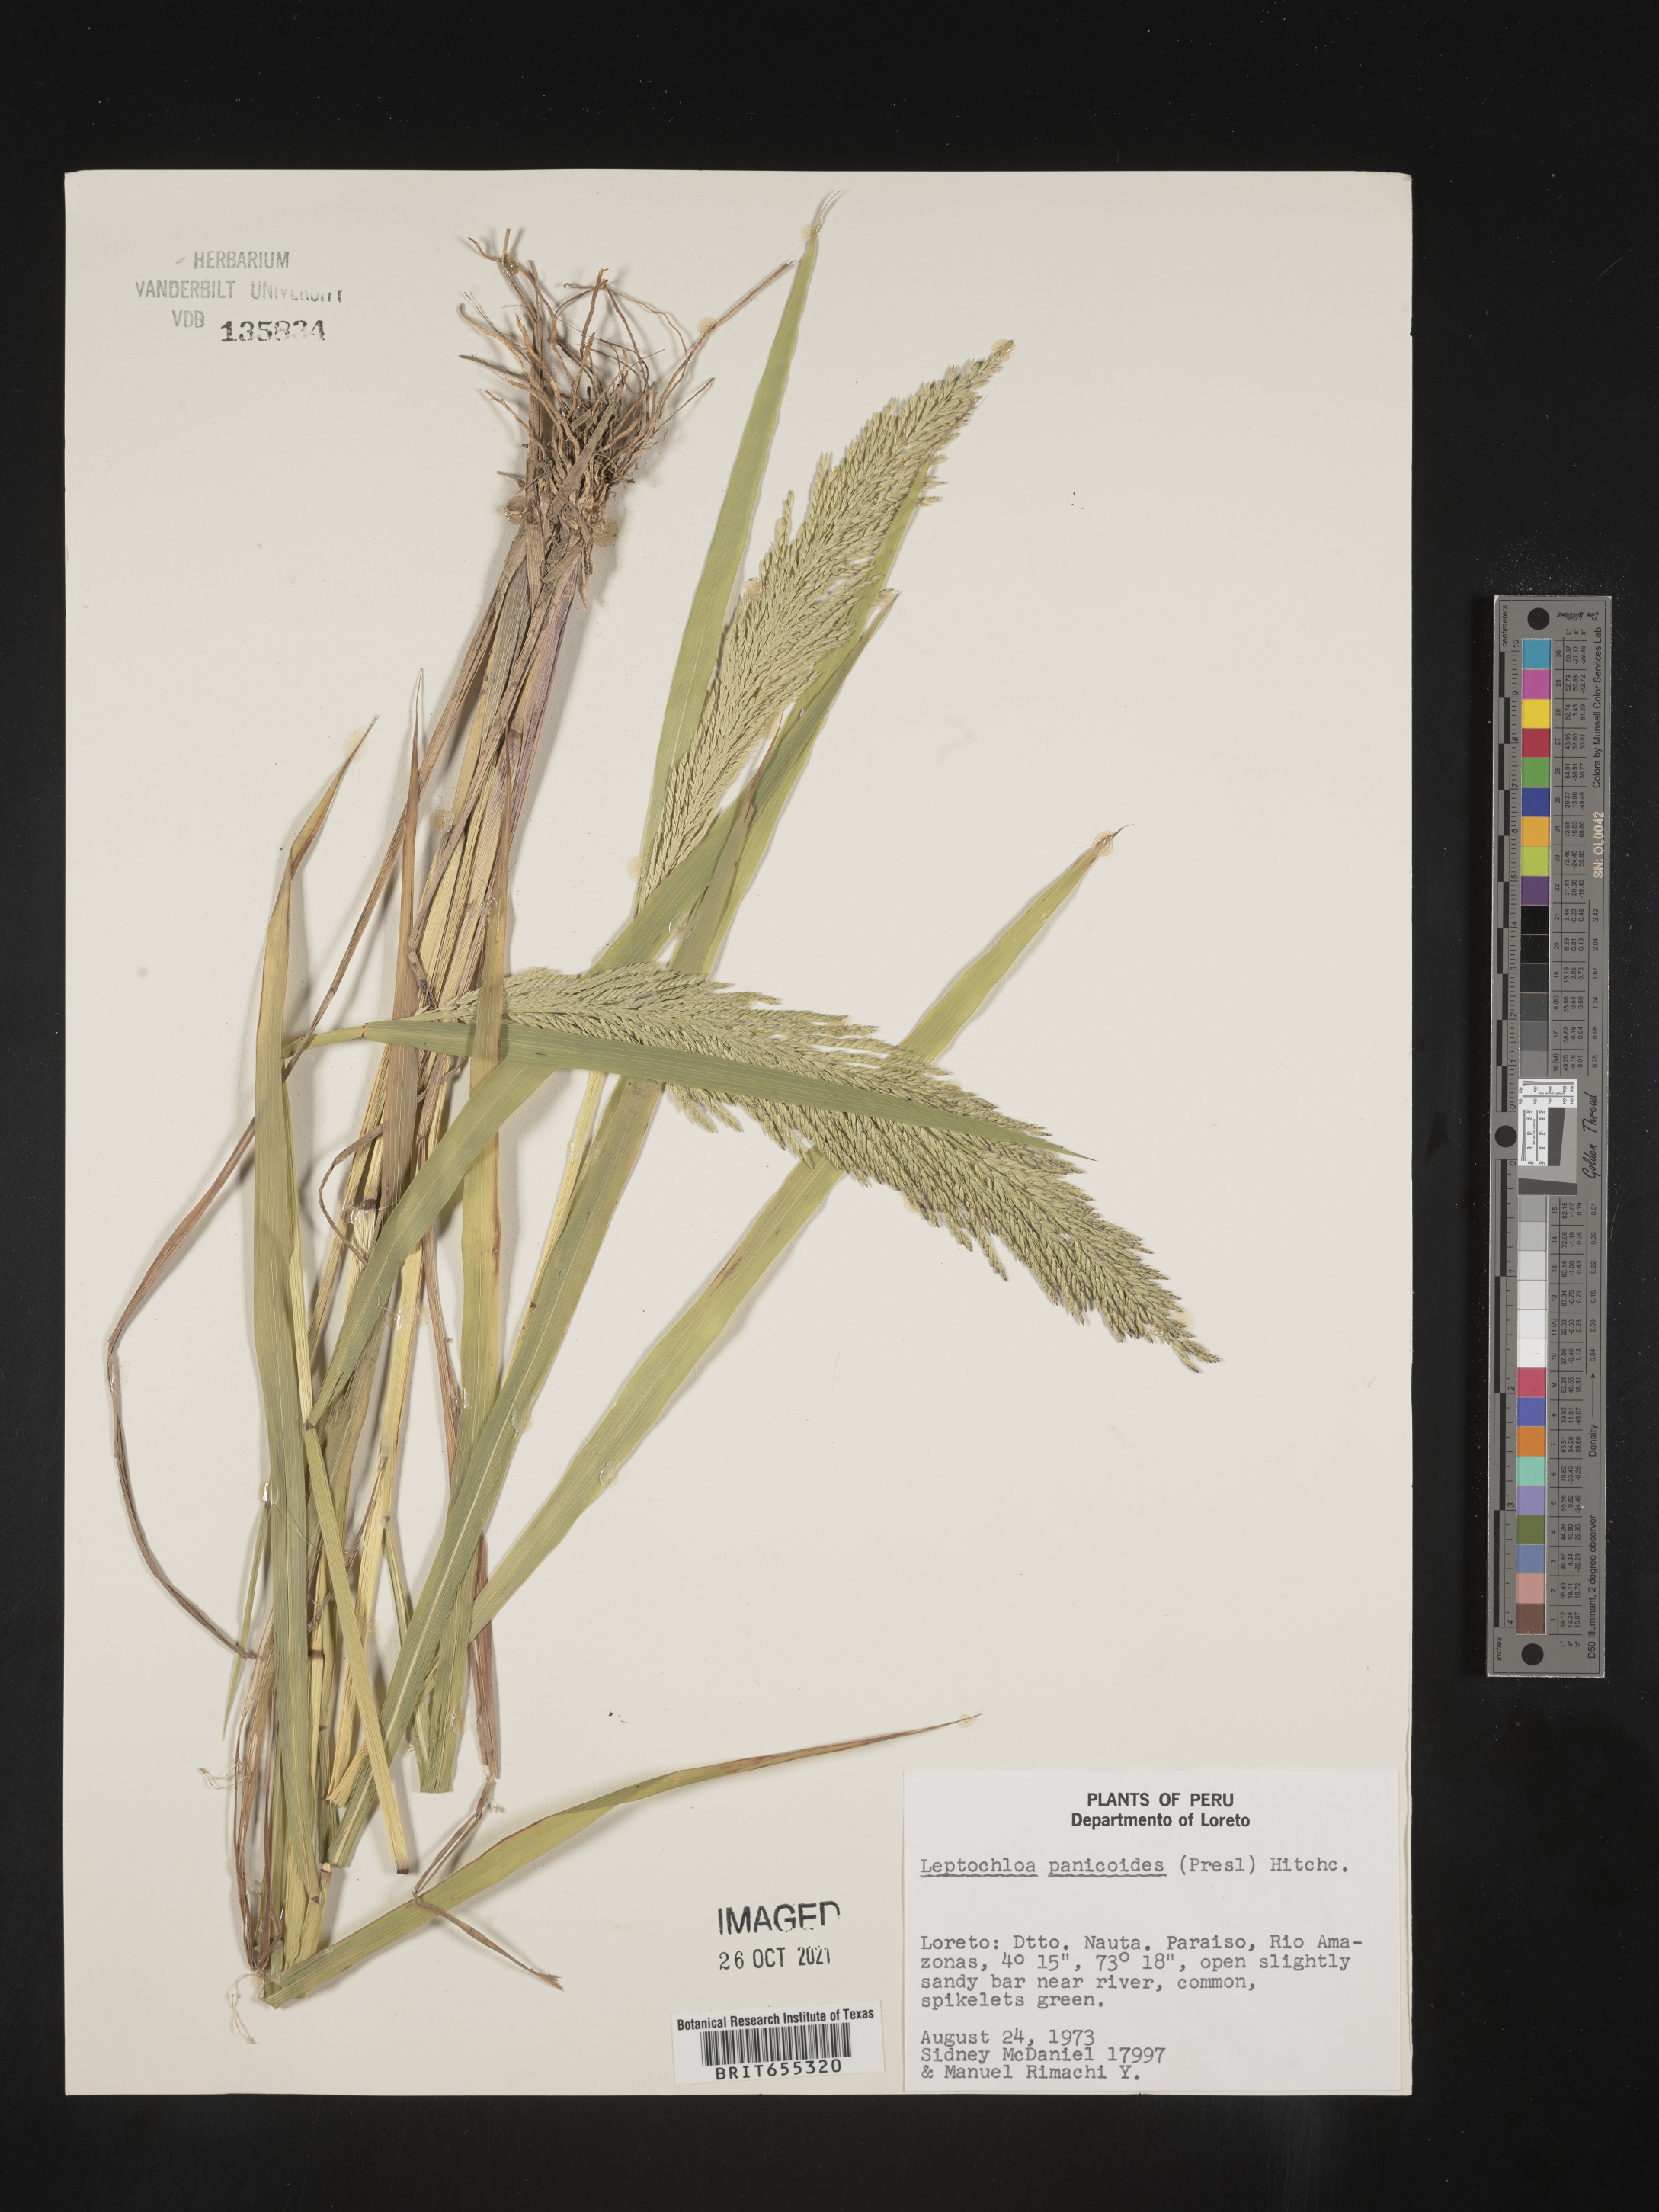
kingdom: Plantae
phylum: Tracheophyta
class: Liliopsida
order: Poales
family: Poaceae
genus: Digitaria
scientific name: Digitaria
